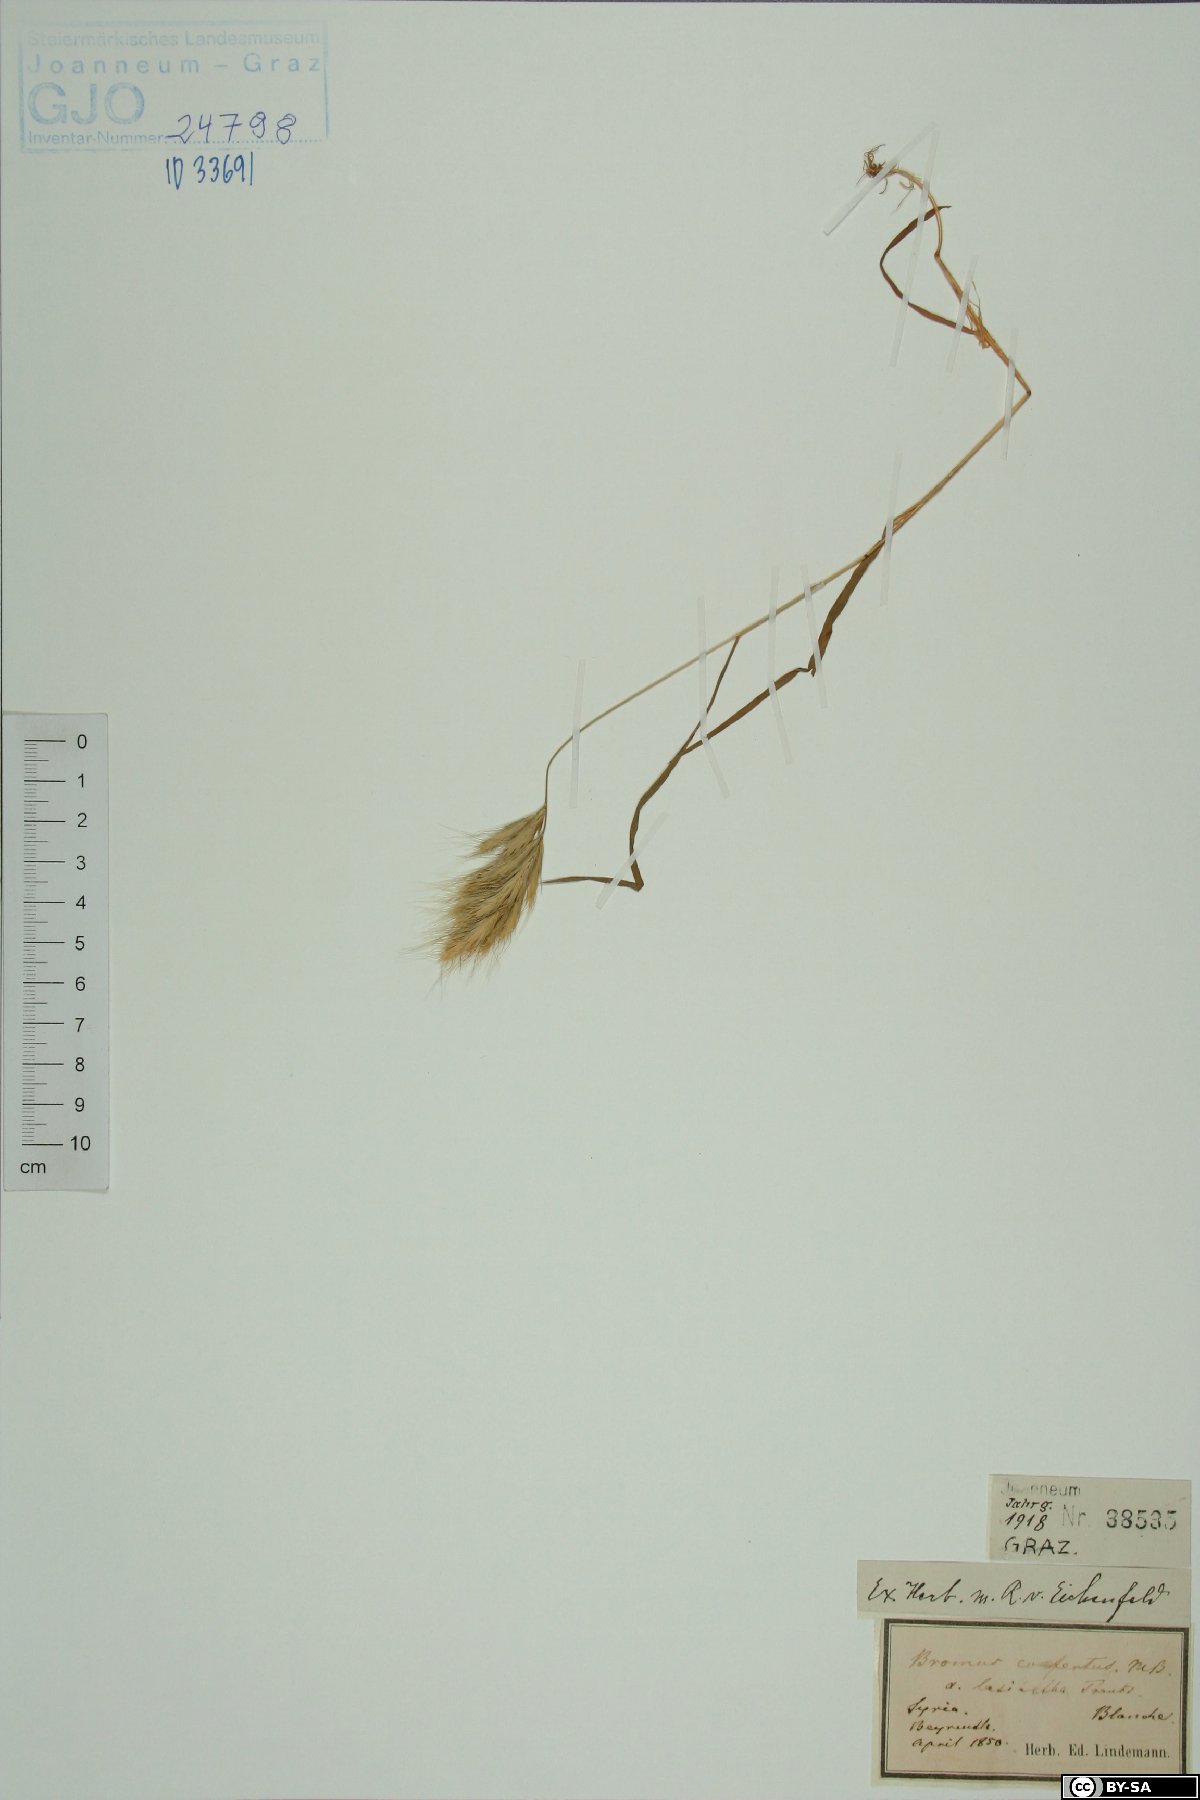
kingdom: Plantae
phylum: Tracheophyta
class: Liliopsida
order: Poales
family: Poaceae
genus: Bromus
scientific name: Bromus scoparius
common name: Broom brome
